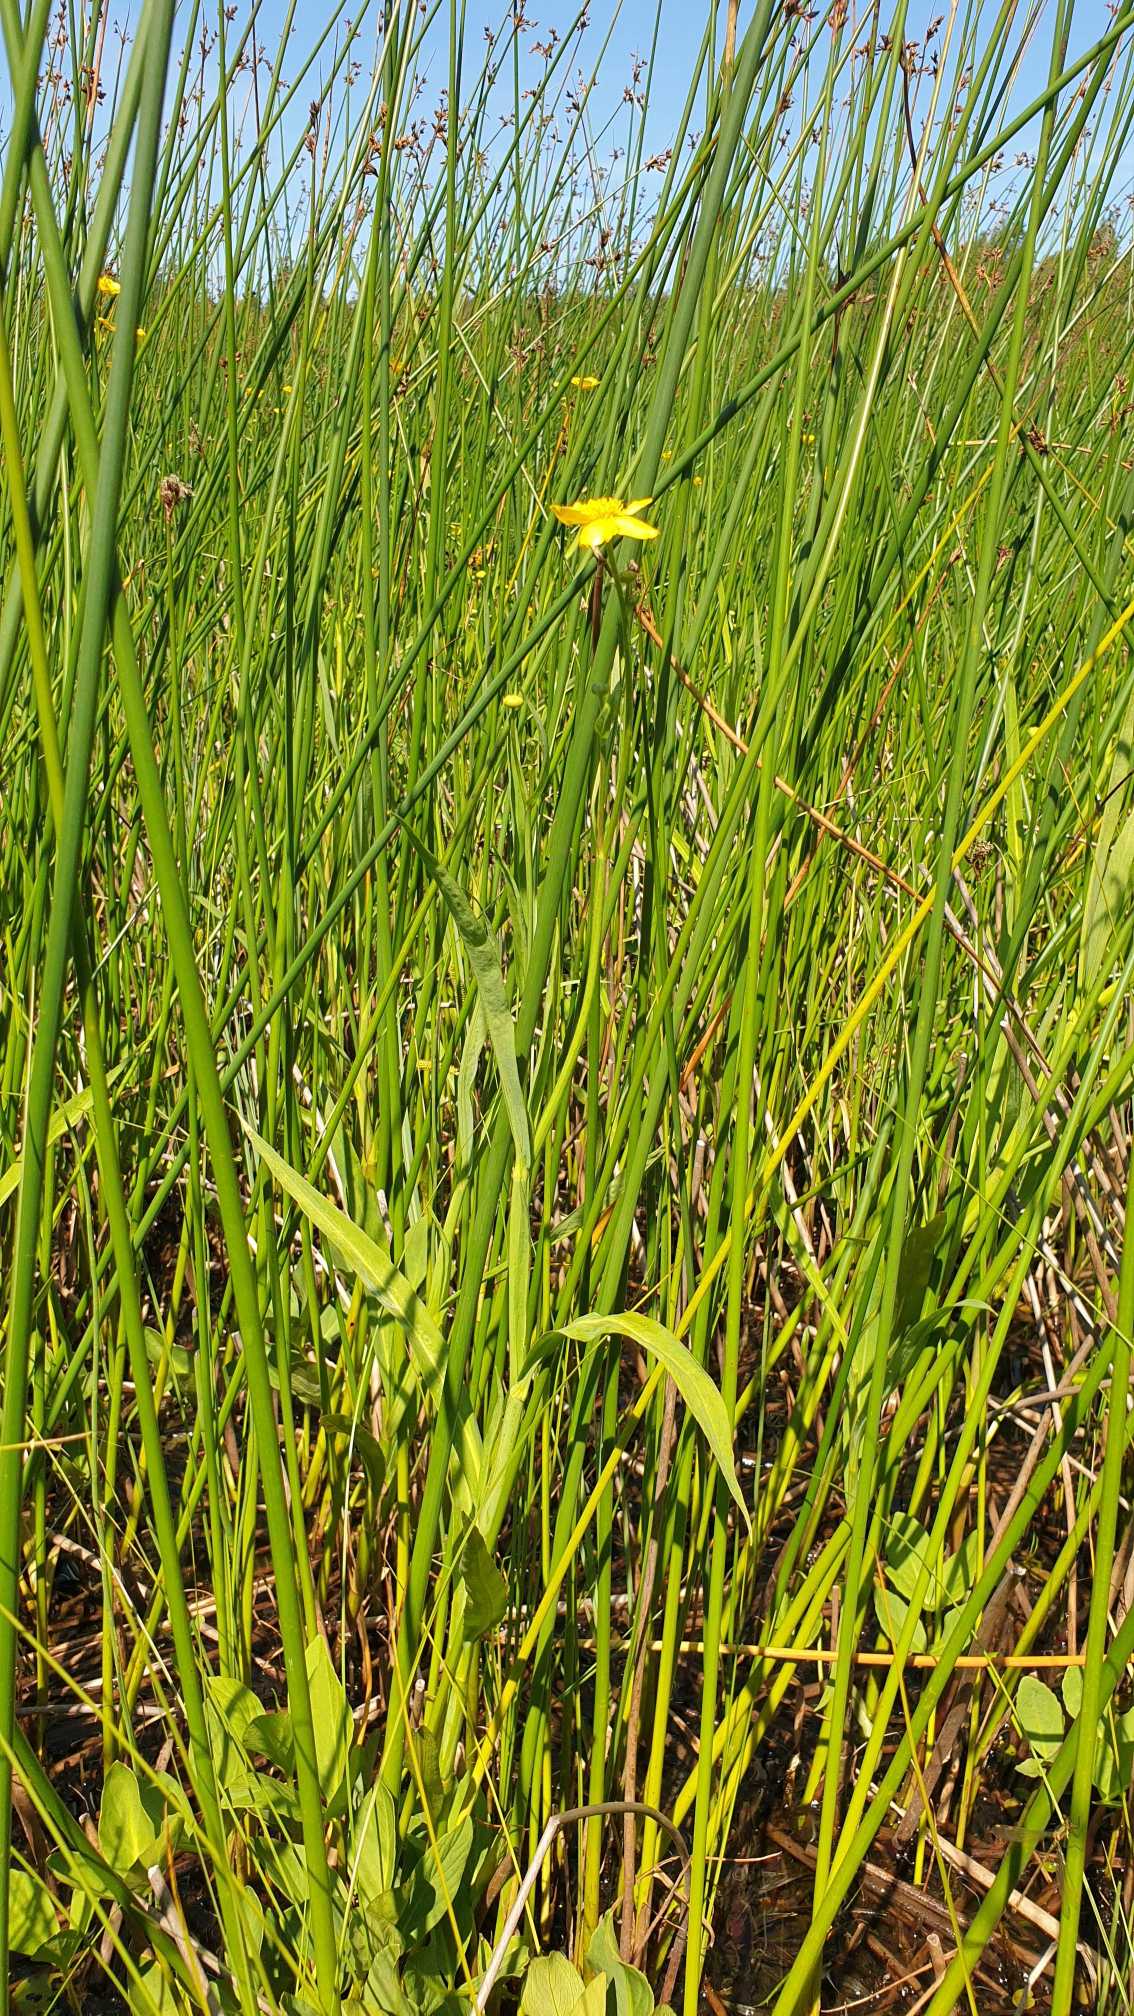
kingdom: Plantae
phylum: Tracheophyta
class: Magnoliopsida
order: Ranunculales
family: Ranunculaceae
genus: Ranunculus
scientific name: Ranunculus lingua
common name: Langbladet ranunkel
